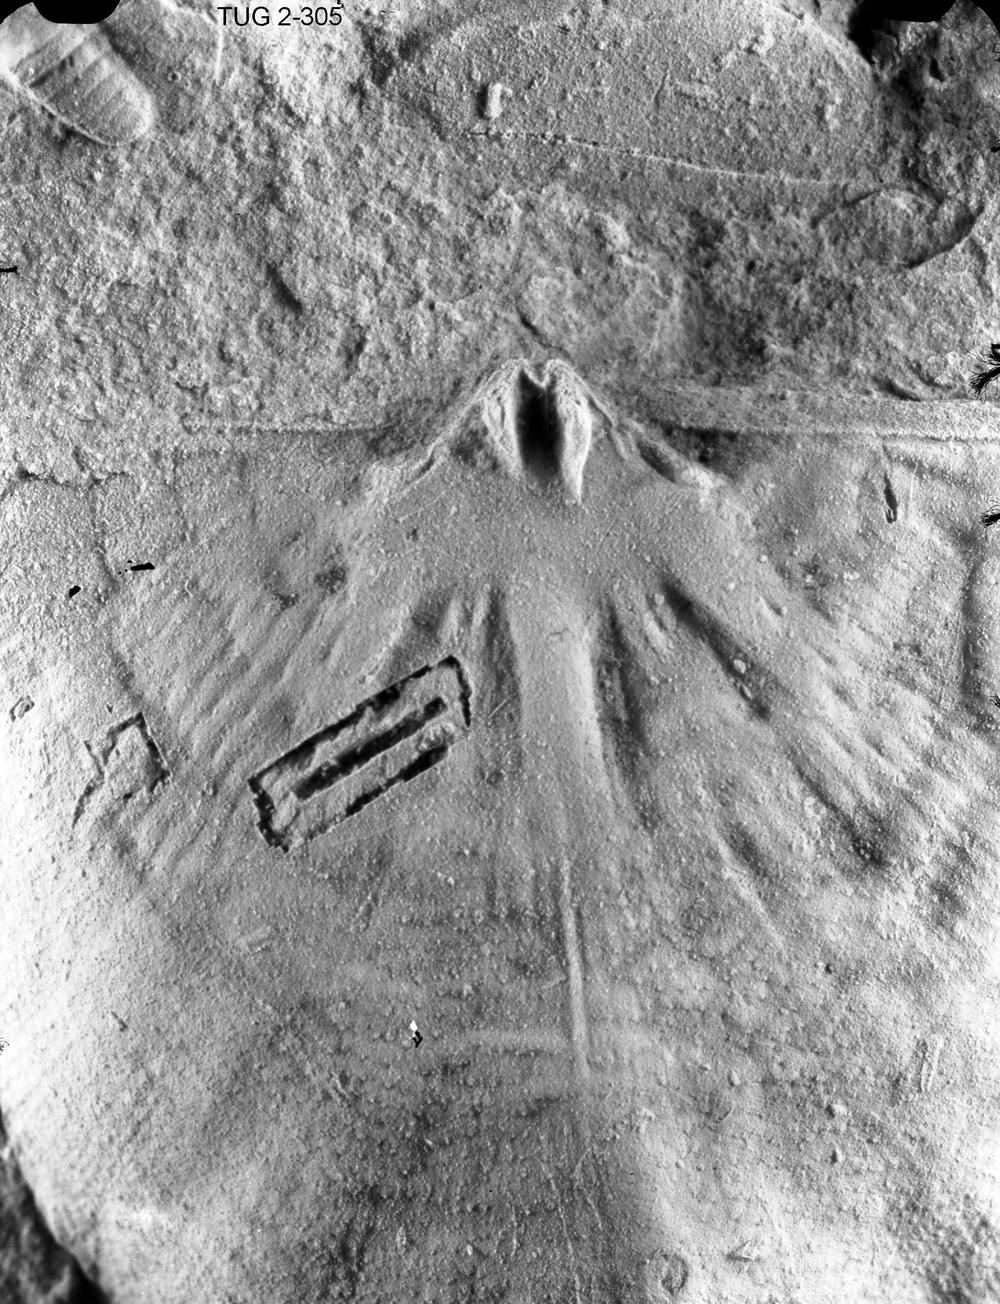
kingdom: Animalia
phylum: Brachiopoda
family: Rafinesquinidae
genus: Rakverina
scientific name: Rakverina Oepikina inaequiclina
